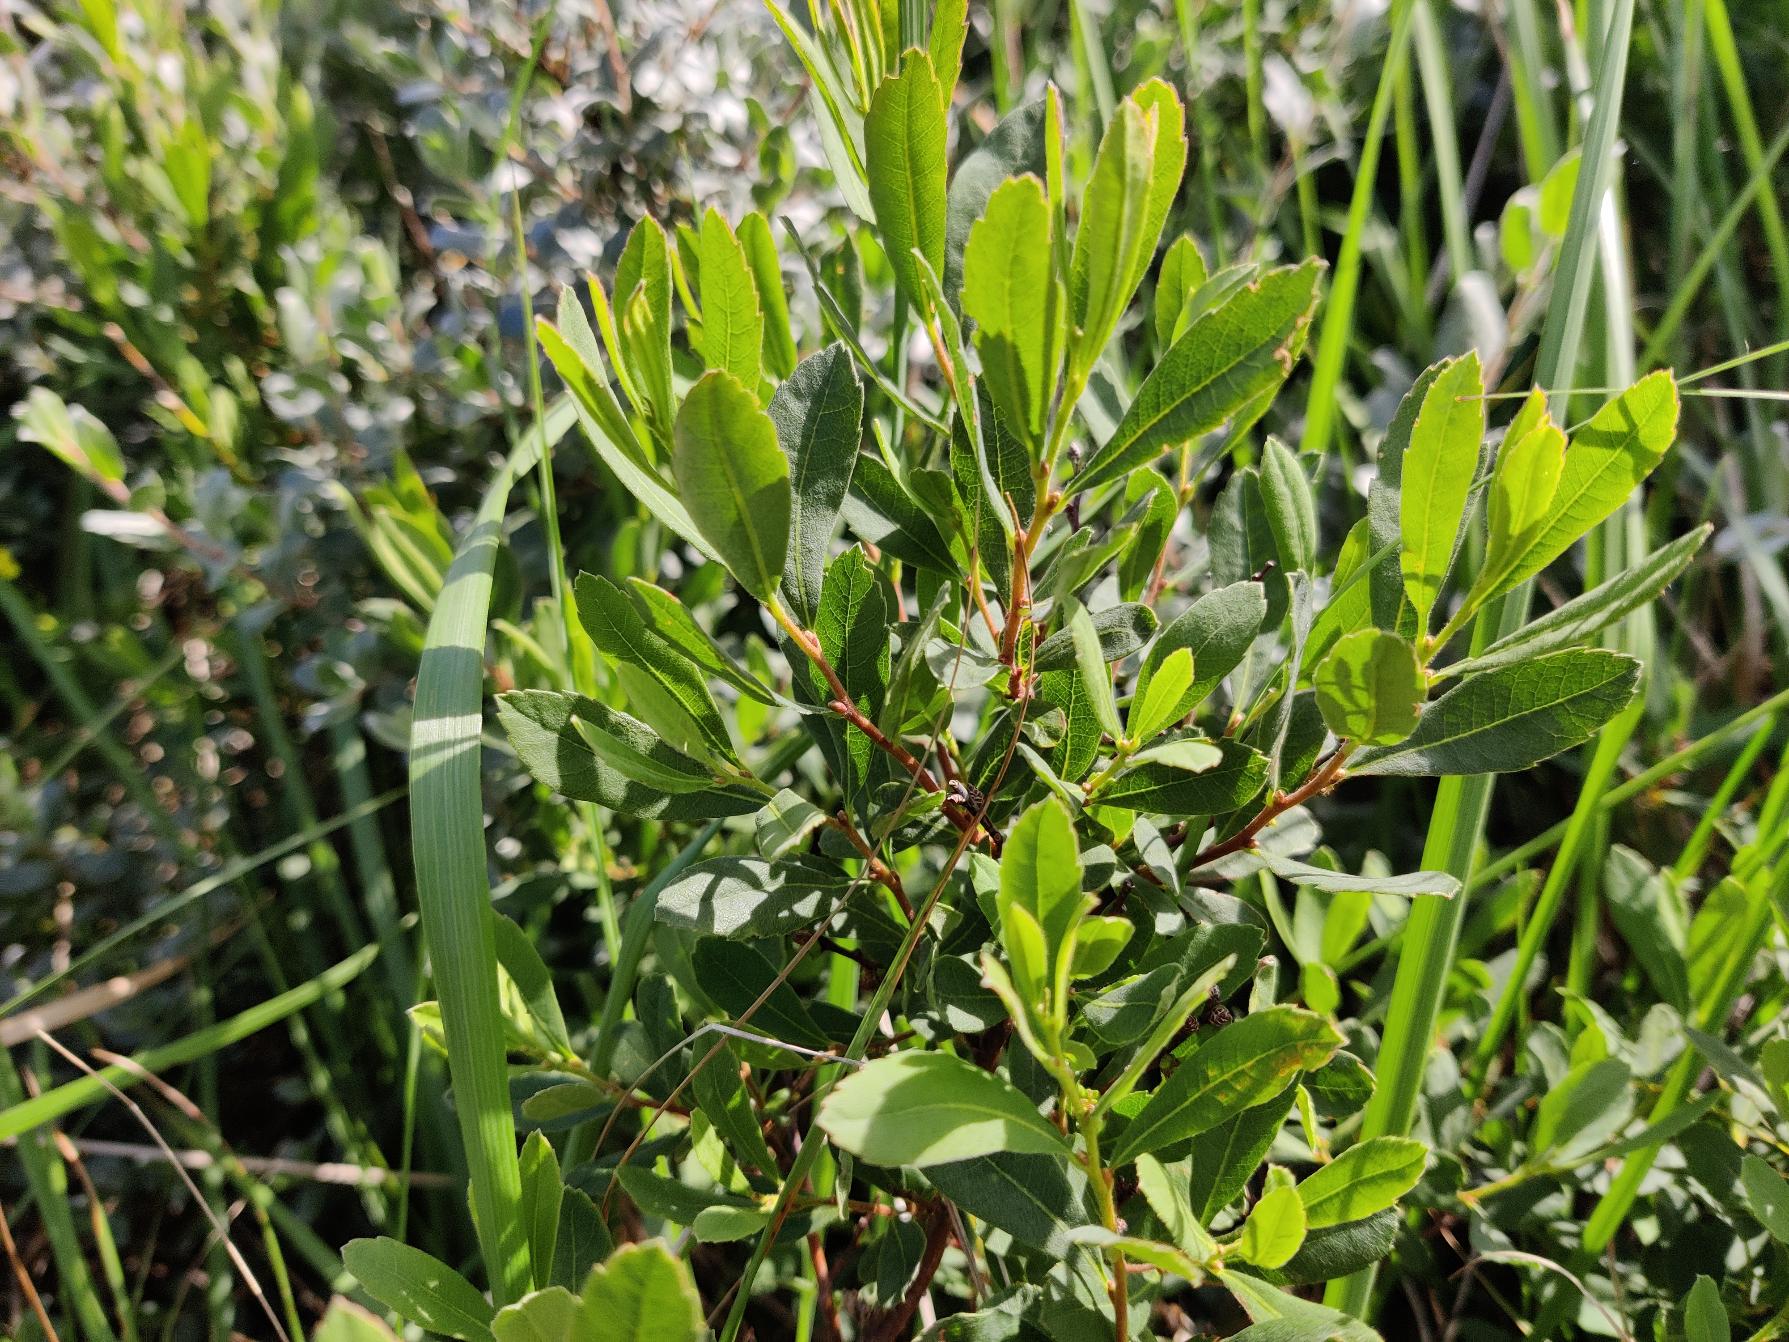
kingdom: Plantae
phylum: Tracheophyta
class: Magnoliopsida
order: Fagales
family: Myricaceae
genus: Myrica
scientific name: Myrica gale
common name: Pors
